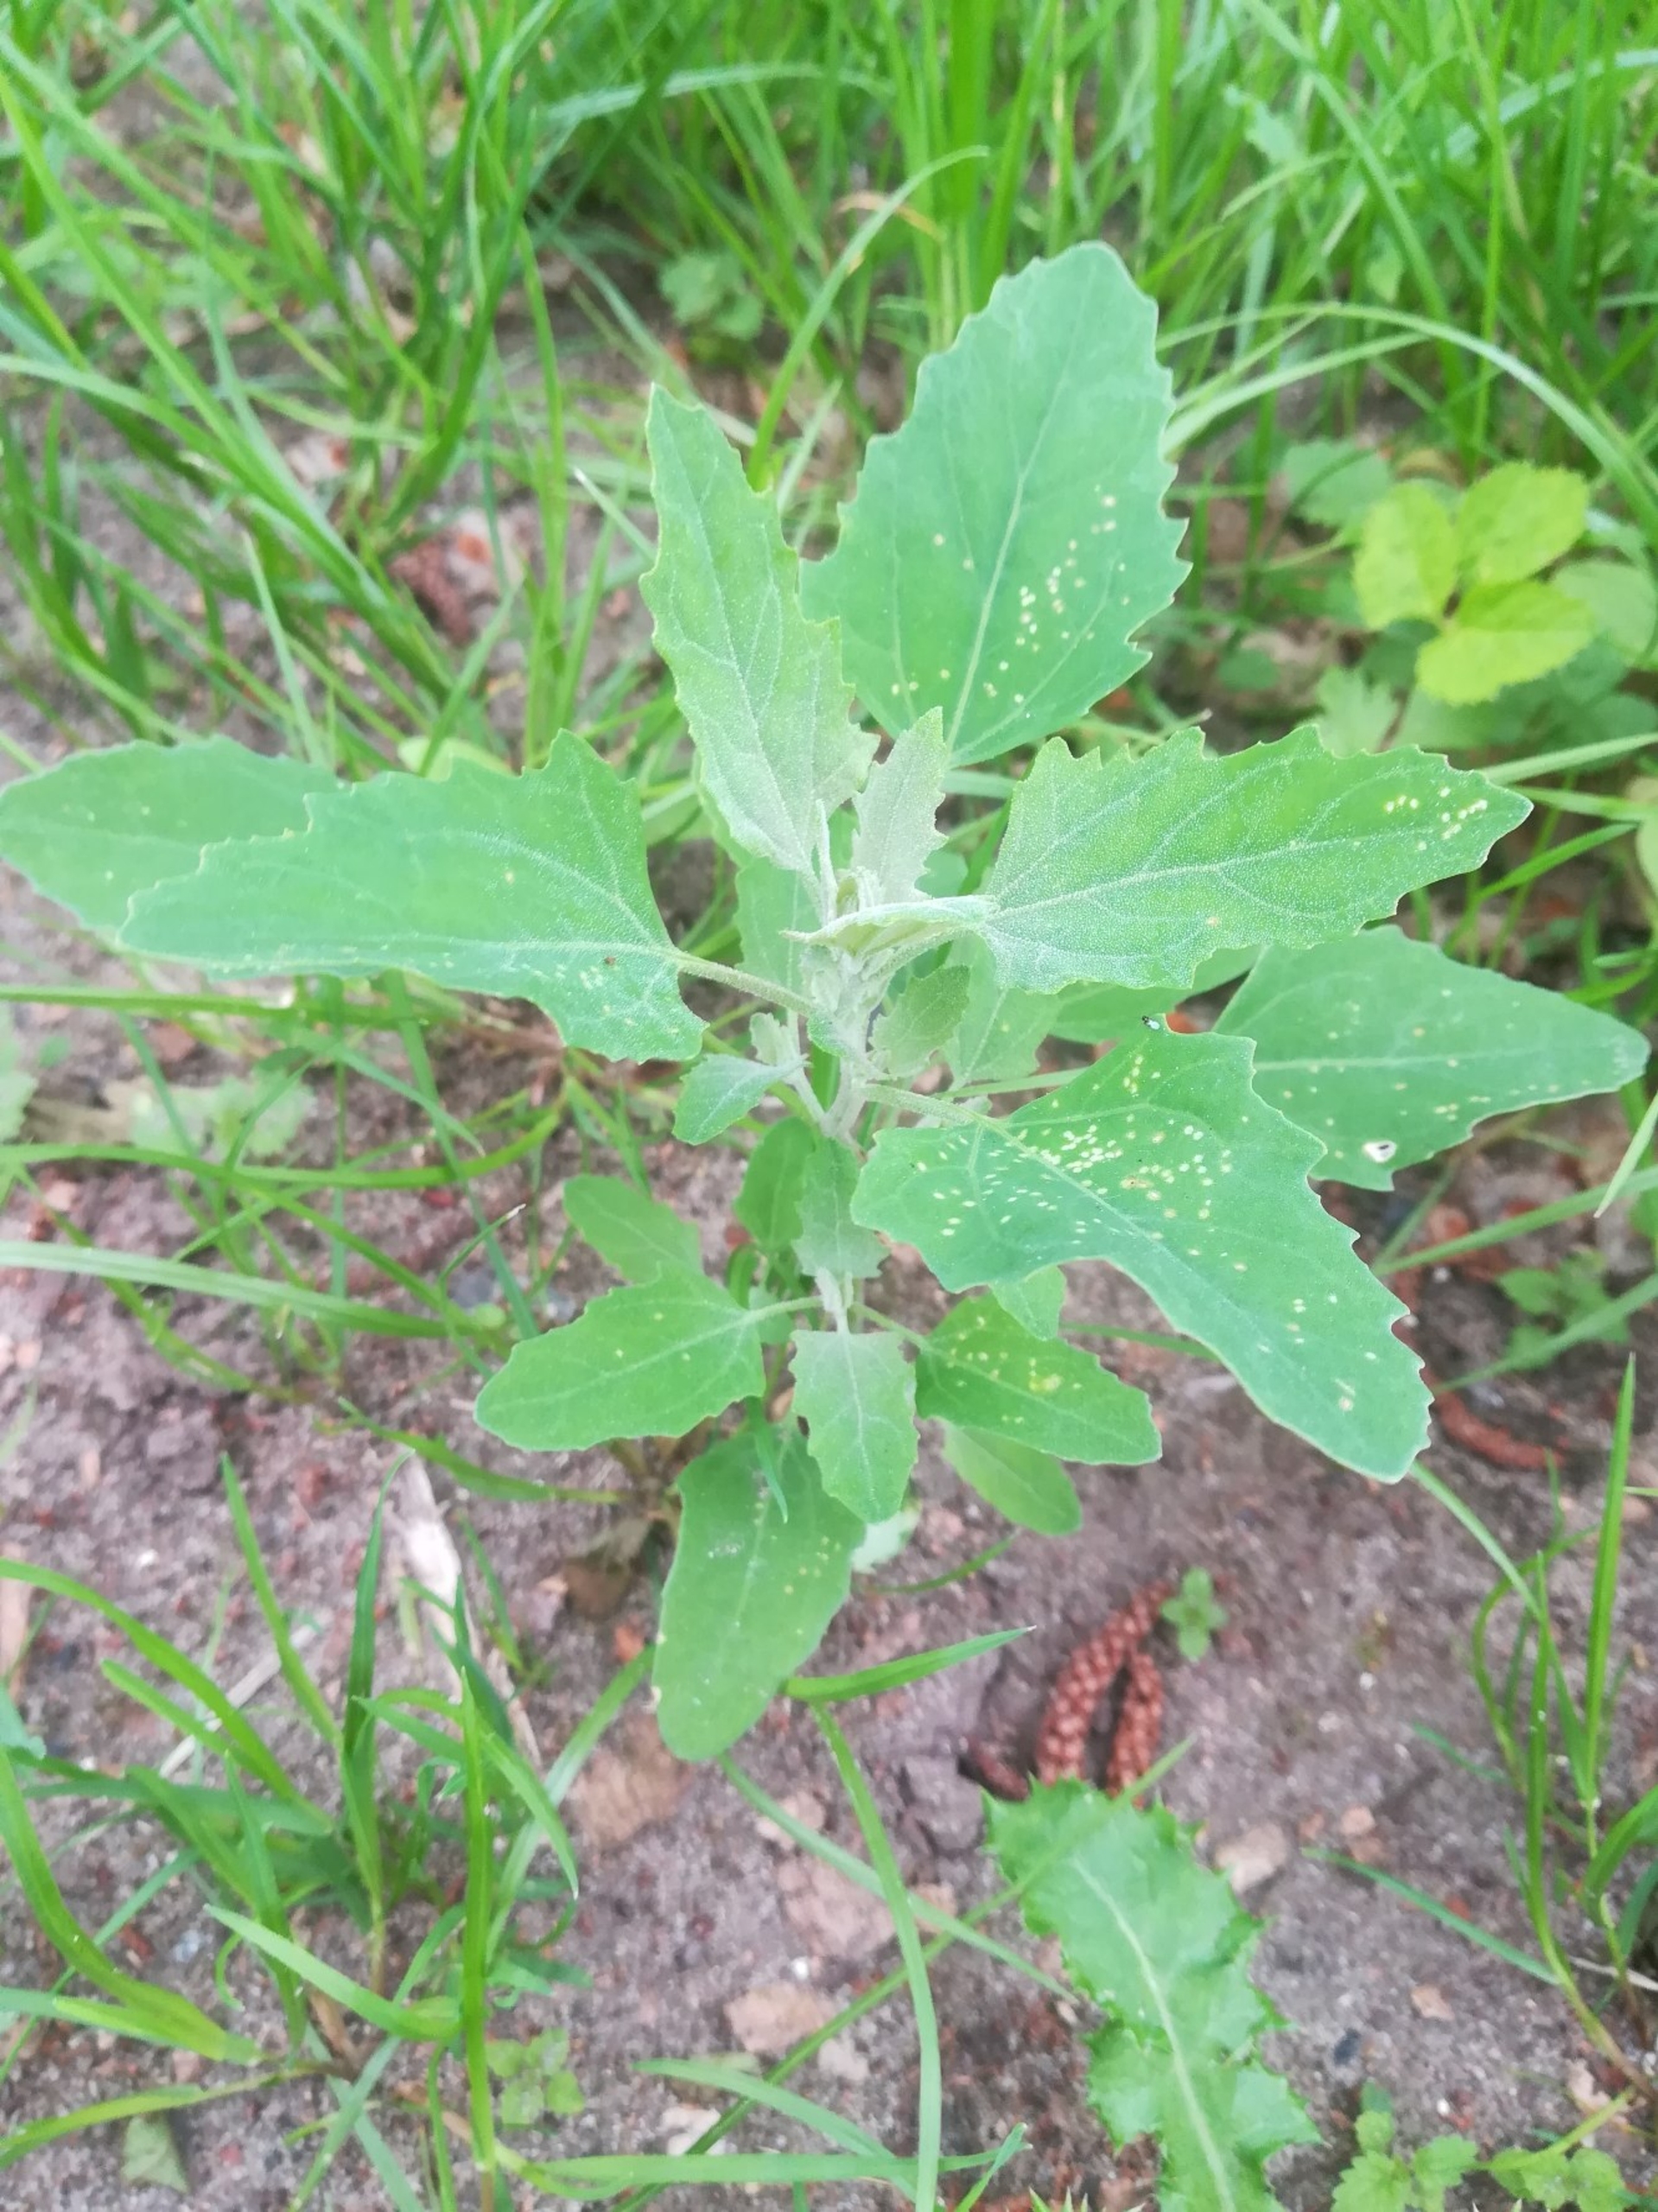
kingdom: Plantae
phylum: Tracheophyta
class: Magnoliopsida
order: Caryophyllales
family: Amaranthaceae
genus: Chenopodium
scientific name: Chenopodium album
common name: Hvidmelet gåsefod
